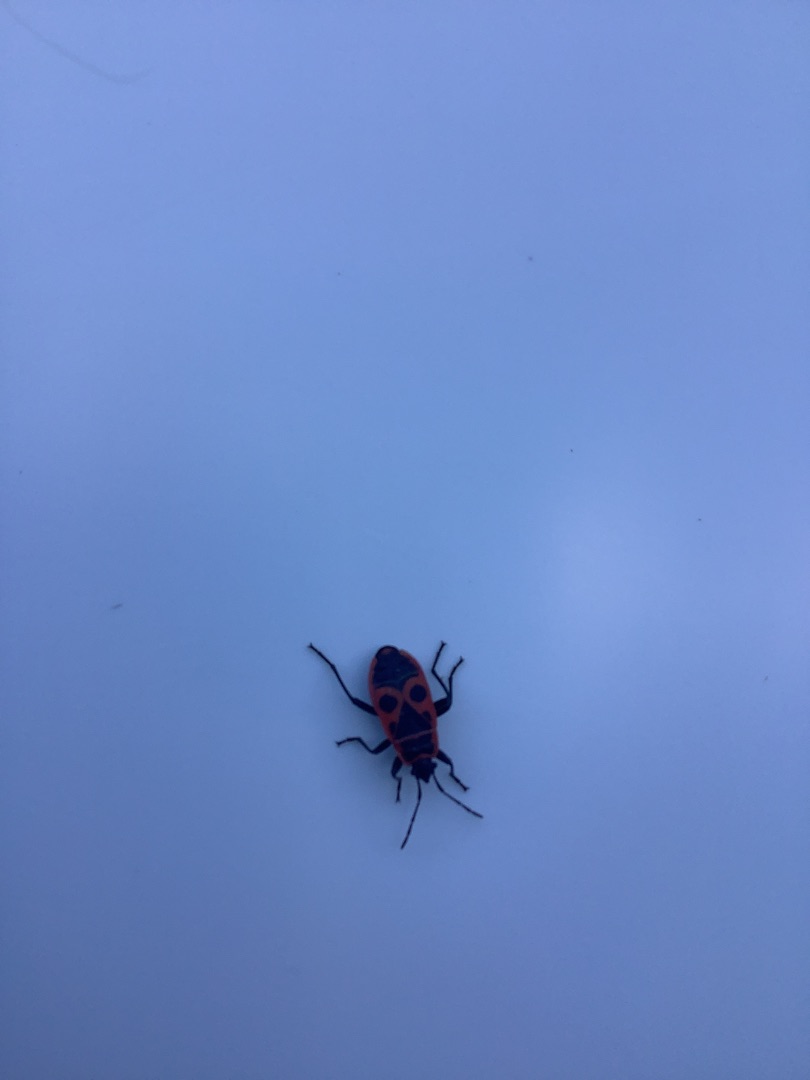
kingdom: Animalia
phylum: Arthropoda
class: Insecta
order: Hemiptera
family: Pyrrhocoridae
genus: Pyrrhocoris
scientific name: Pyrrhocoris apterus
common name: Ildtæge
